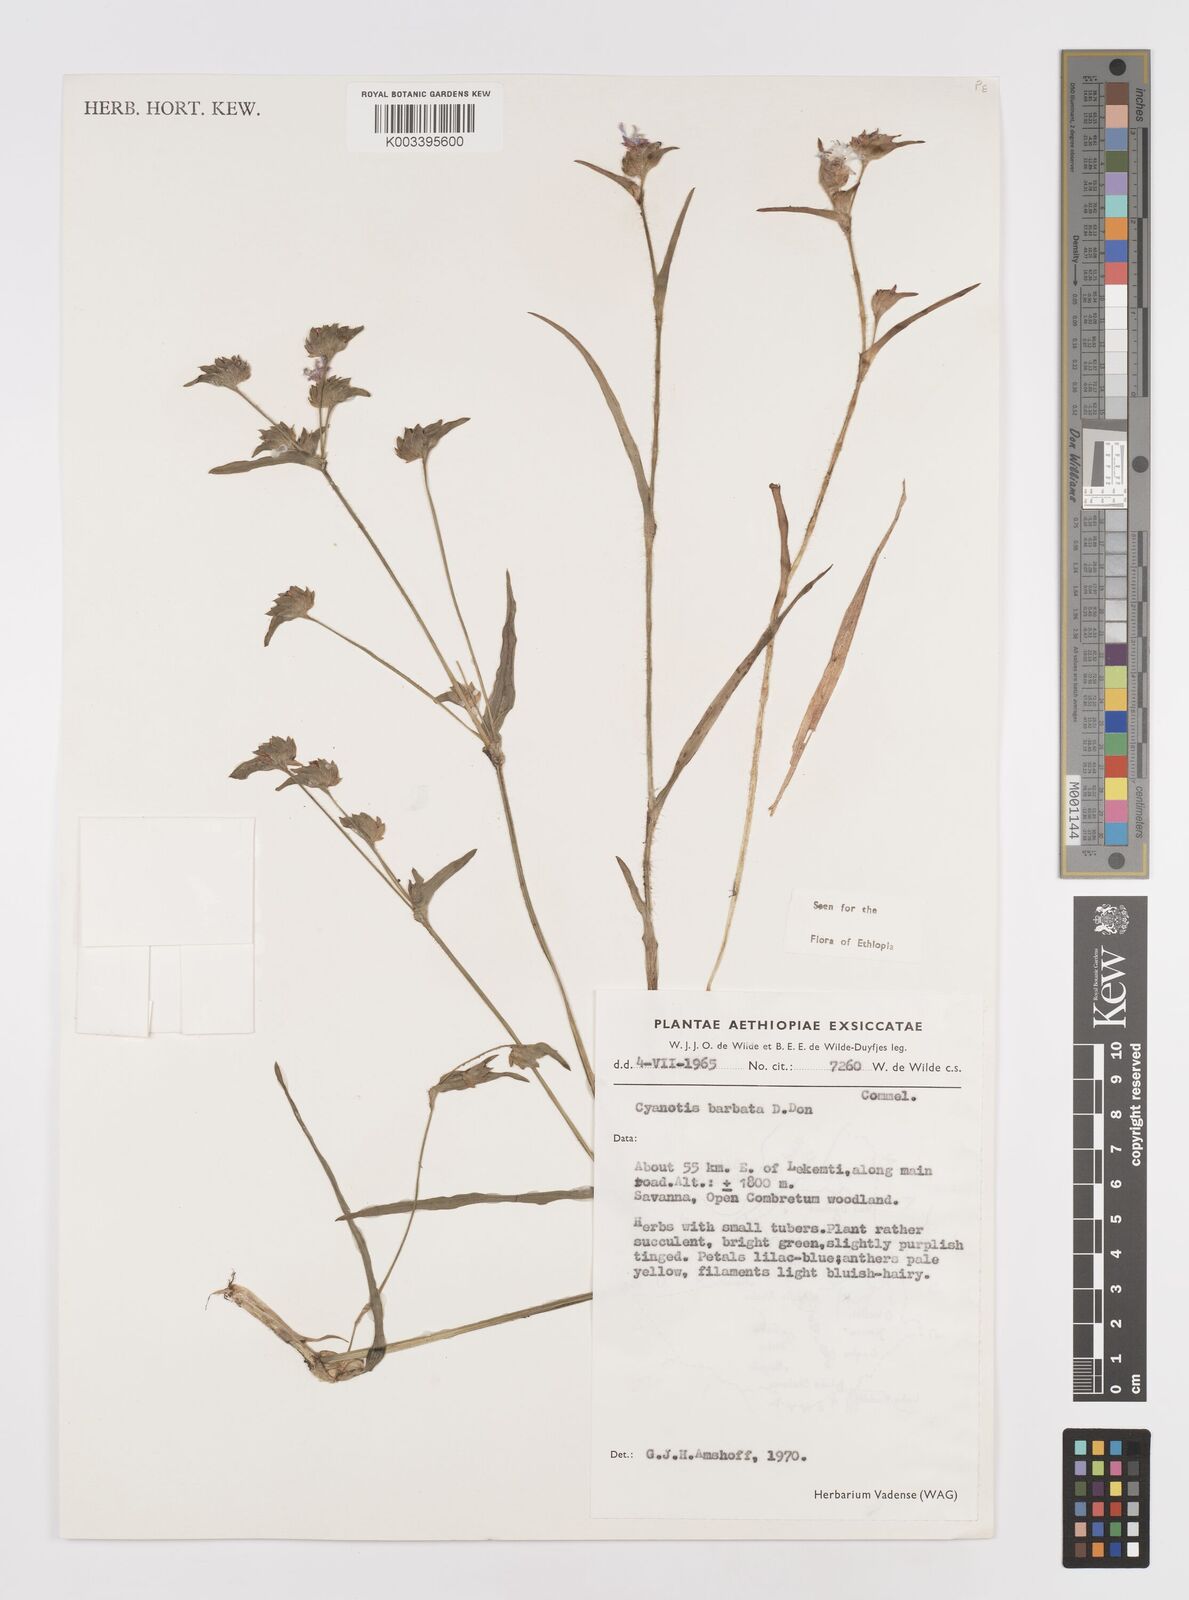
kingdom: Plantae
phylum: Tracheophyta
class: Liliopsida
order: Commelinales
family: Commelinaceae
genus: Cyanotis
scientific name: Cyanotis vaga
